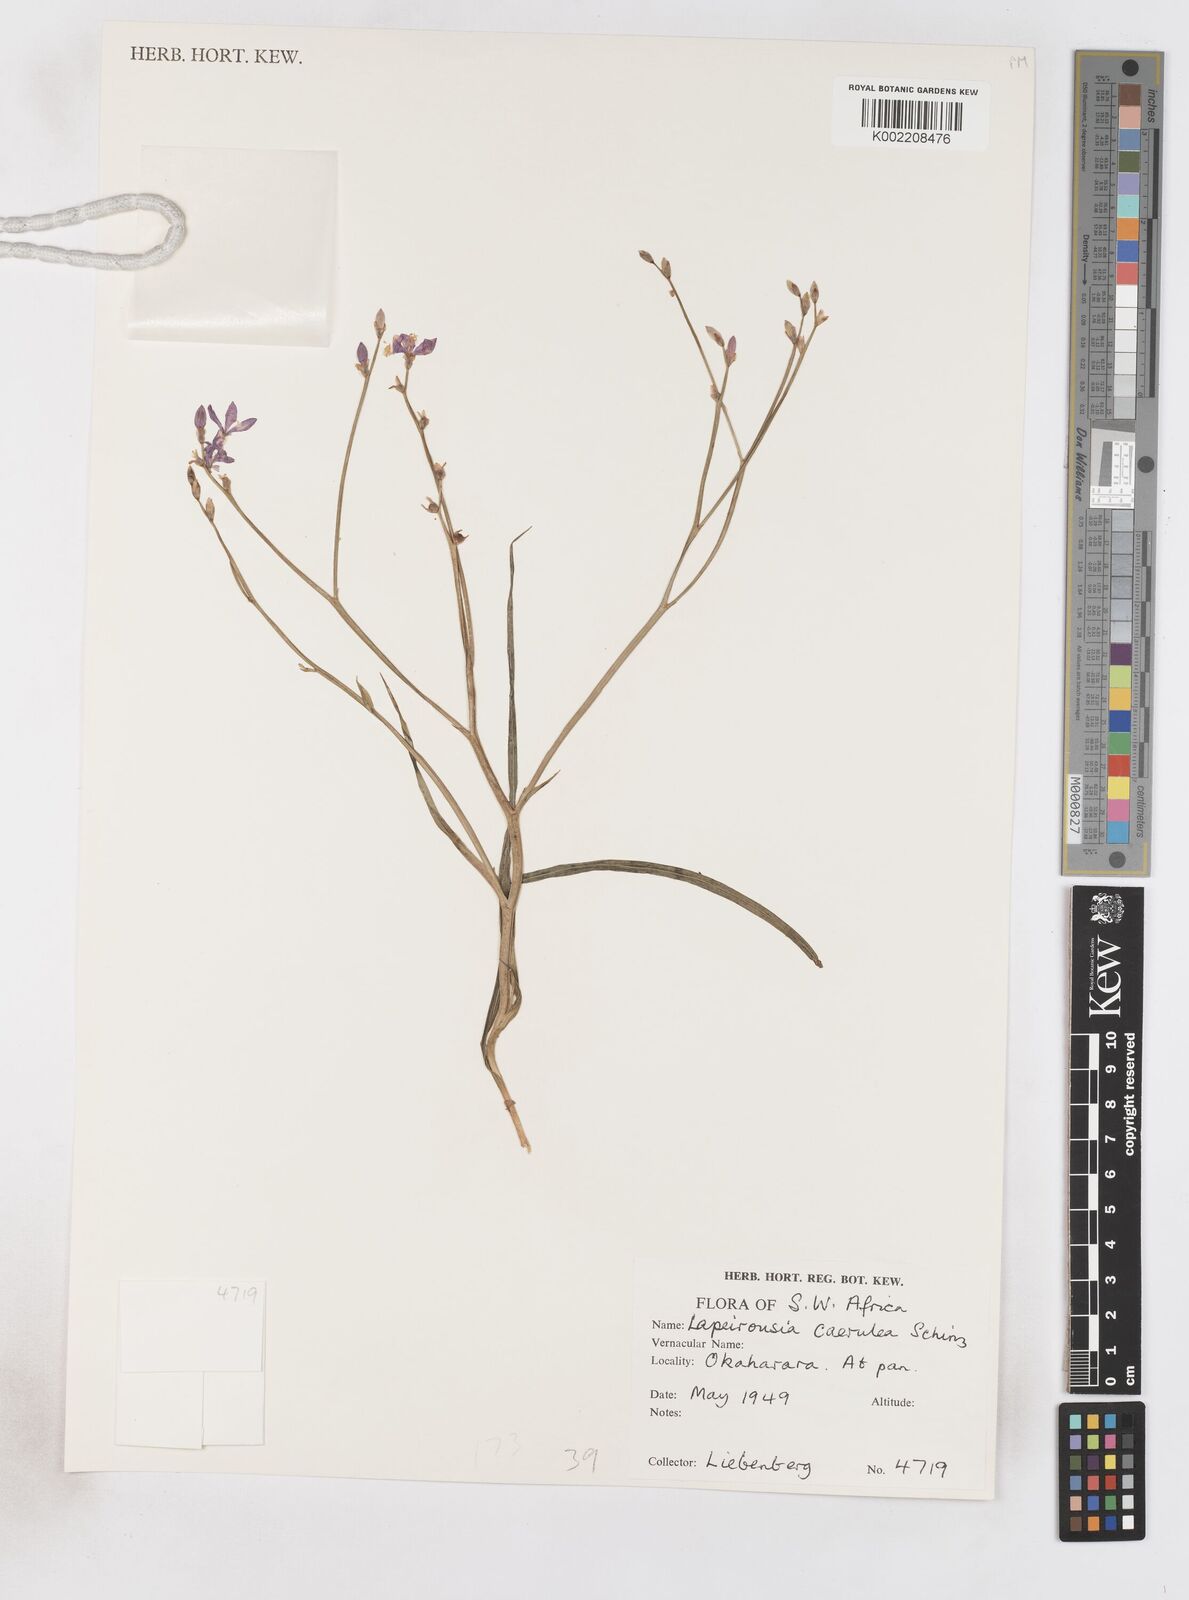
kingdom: Plantae
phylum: Tracheophyta
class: Liliopsida
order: Asparagales
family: Iridaceae
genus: Afrosolen
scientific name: Afrosolen coeruleus
